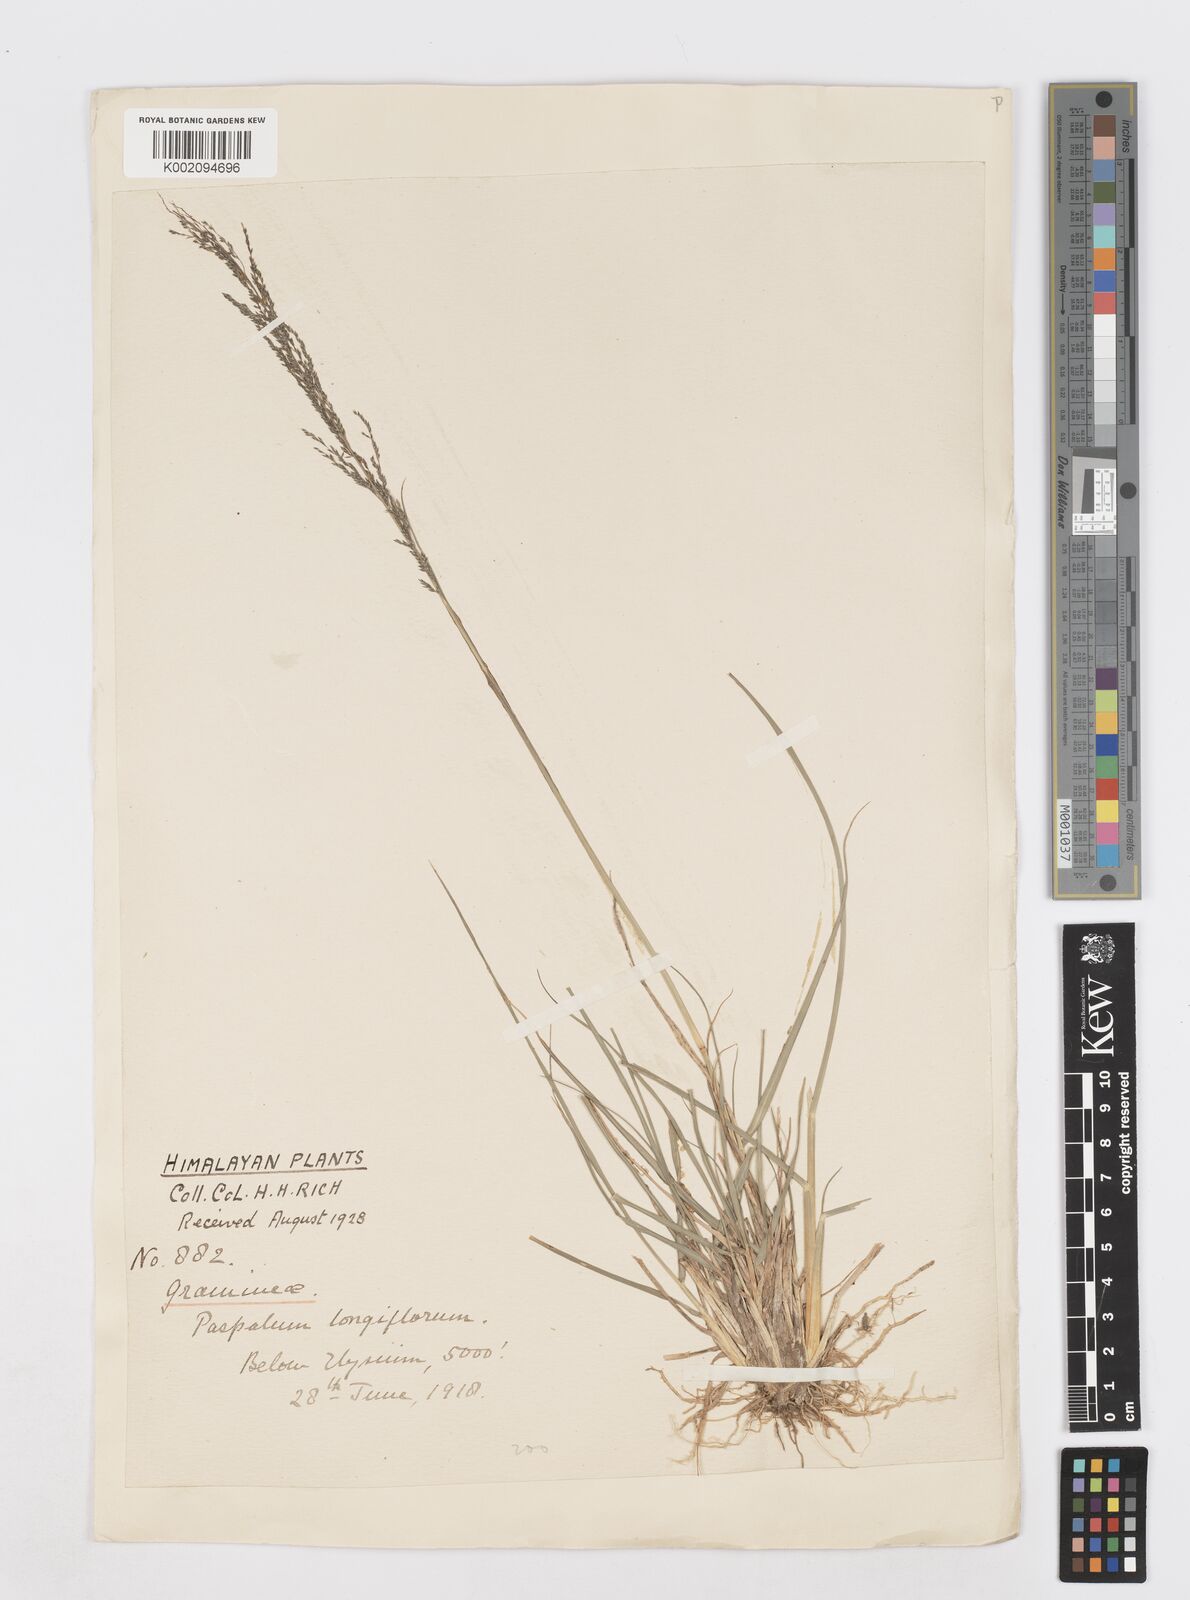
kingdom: Plantae
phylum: Tracheophyta
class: Liliopsida
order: Poales
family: Poaceae
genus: Sporobolus
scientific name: Sporobolus
